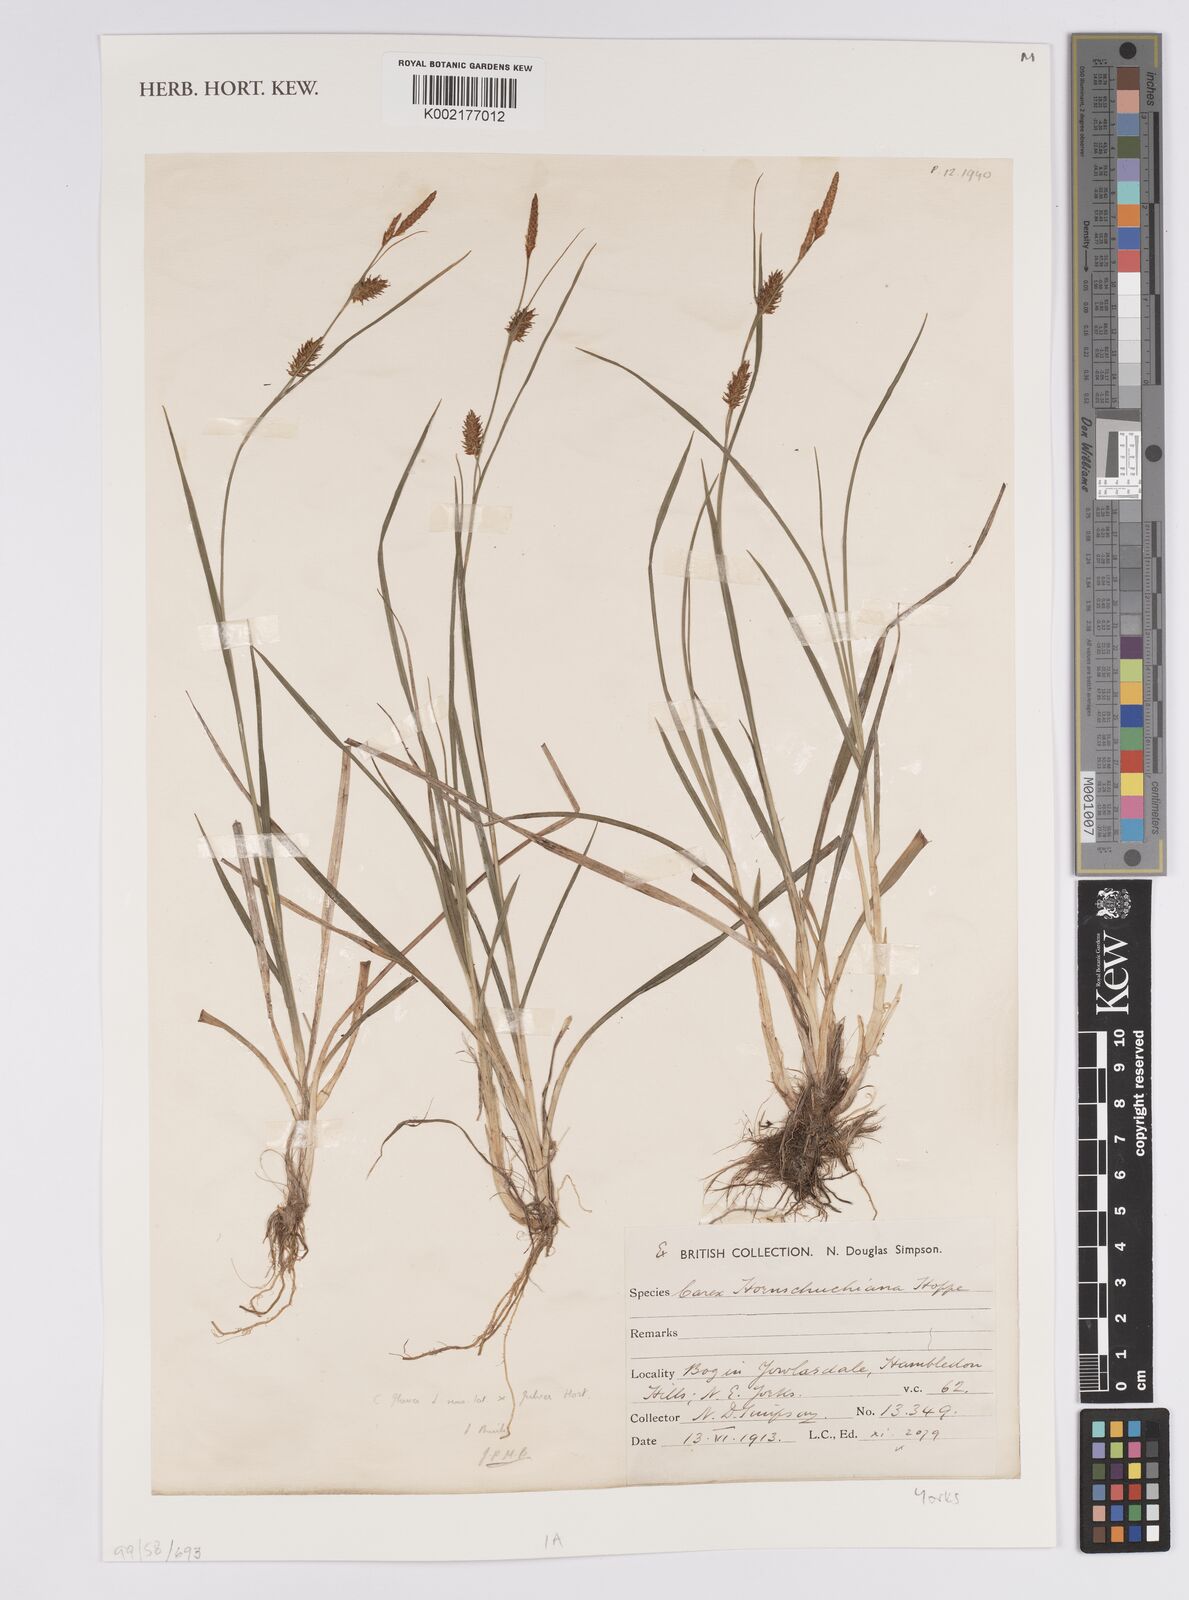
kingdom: Plantae
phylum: Tracheophyta
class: Liliopsida
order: Poales
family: Cyperaceae
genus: Carex
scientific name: Carex hostiana
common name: Tawny sedge
